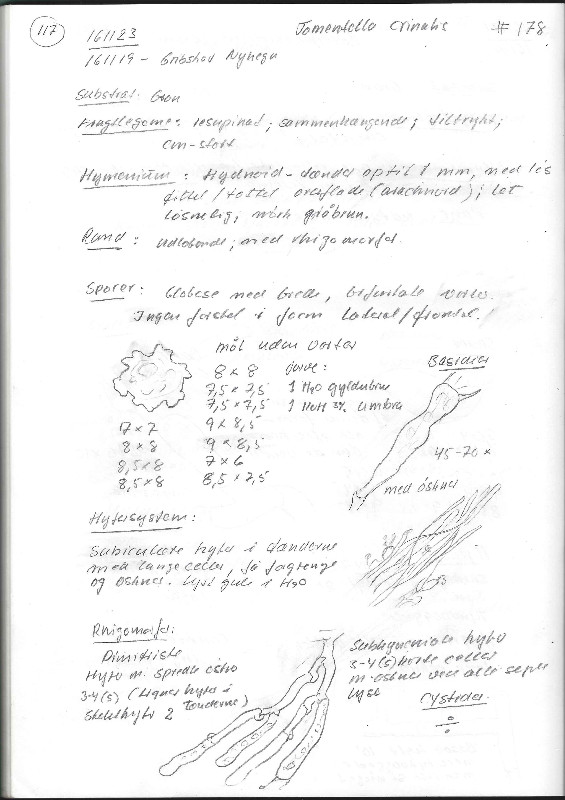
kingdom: Fungi
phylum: Basidiomycota
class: Agaricomycetes
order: Thelephorales
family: Thelephoraceae
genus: Odontia
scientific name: Odontia ferruginea
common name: pigget frynsehinde
